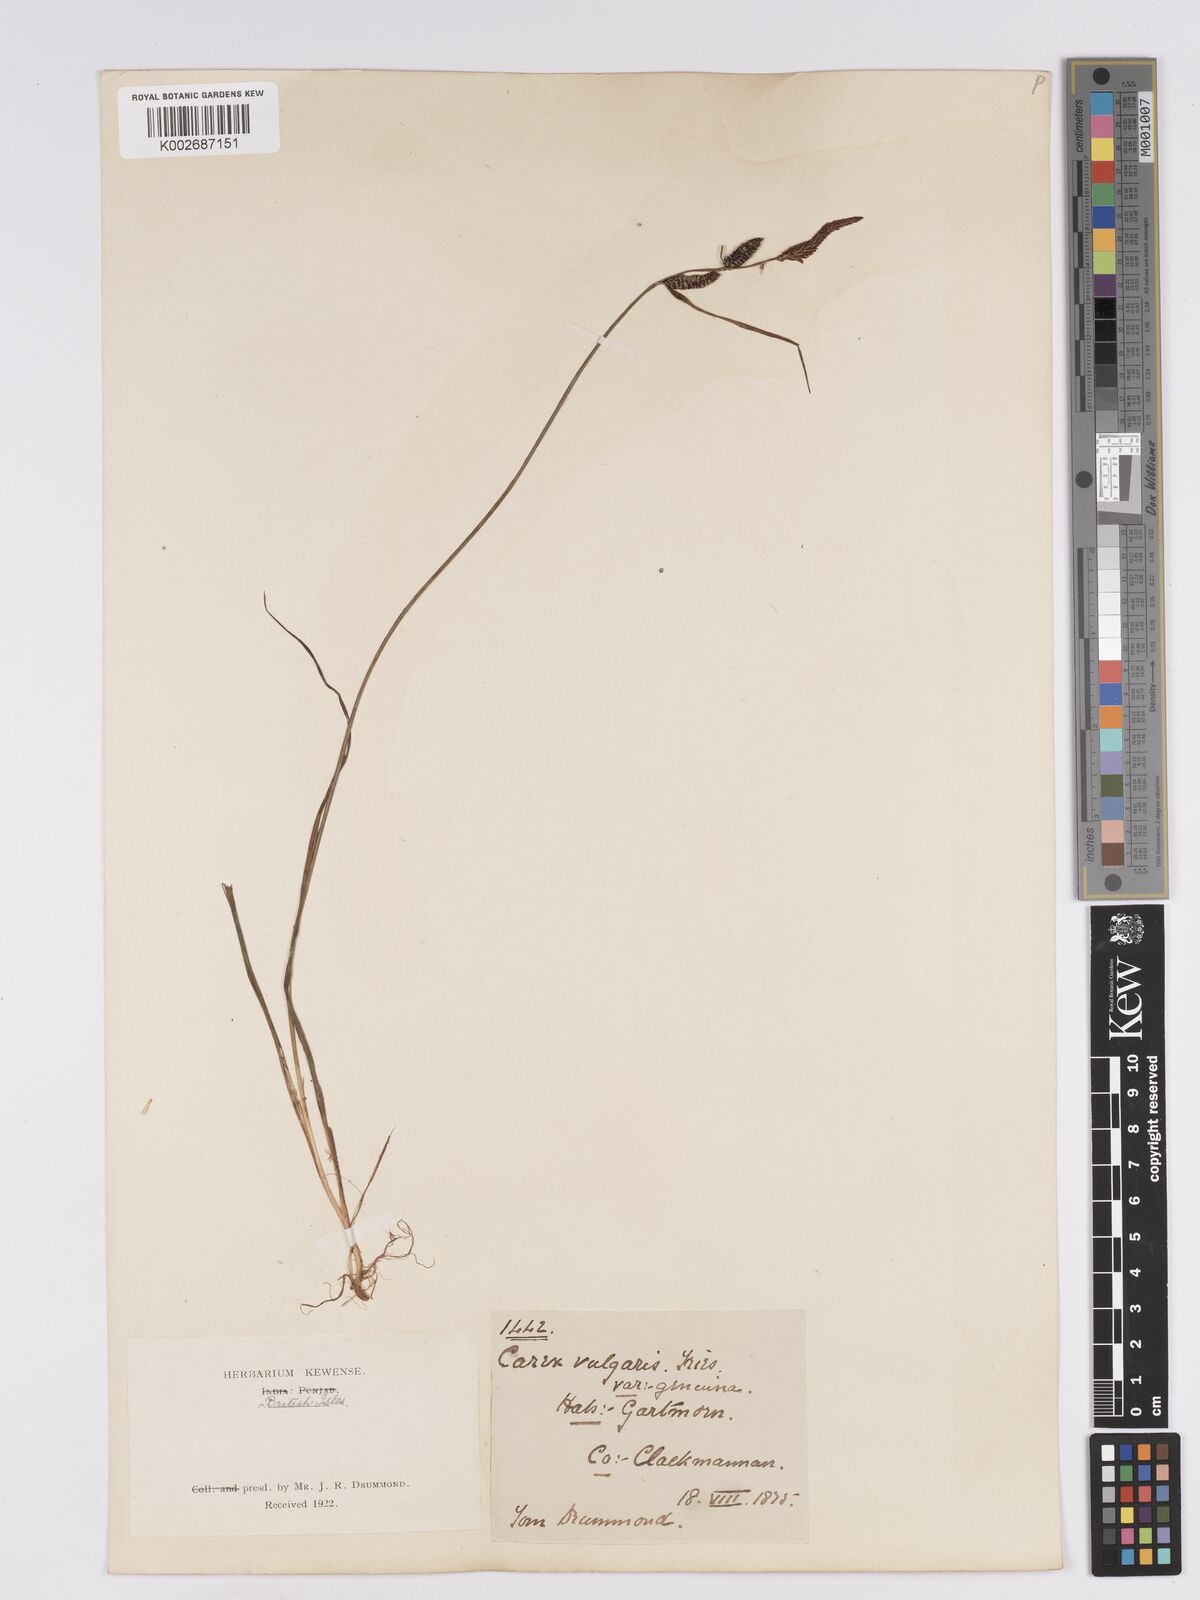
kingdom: Plantae
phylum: Tracheophyta
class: Liliopsida
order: Poales
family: Cyperaceae
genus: Carex
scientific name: Carex nigra
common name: Common sedge
